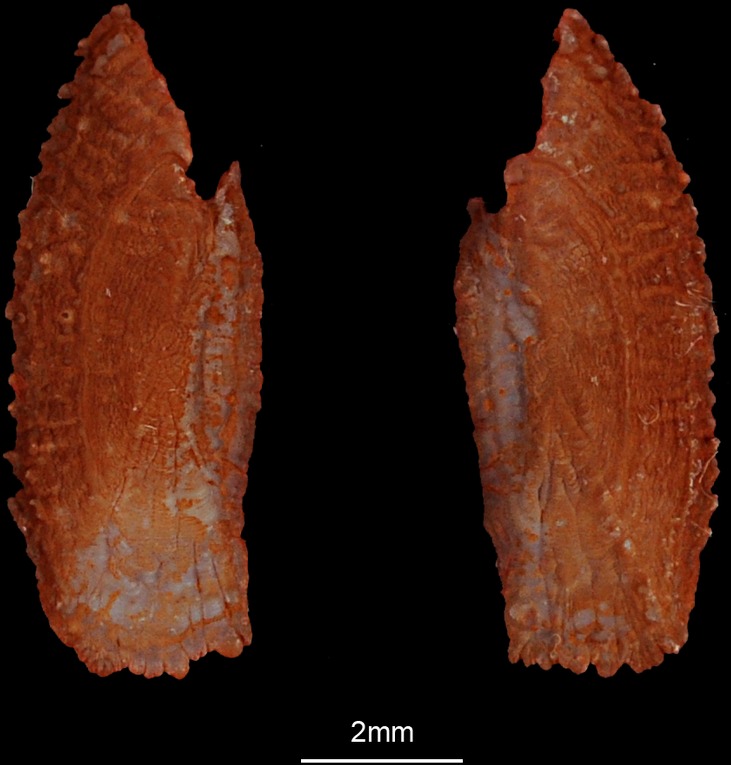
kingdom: Animalia
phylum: Chordata
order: Perciformes
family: Rachycentridae
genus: Rachycentron
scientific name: Rachycentron canadum
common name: Cobia
